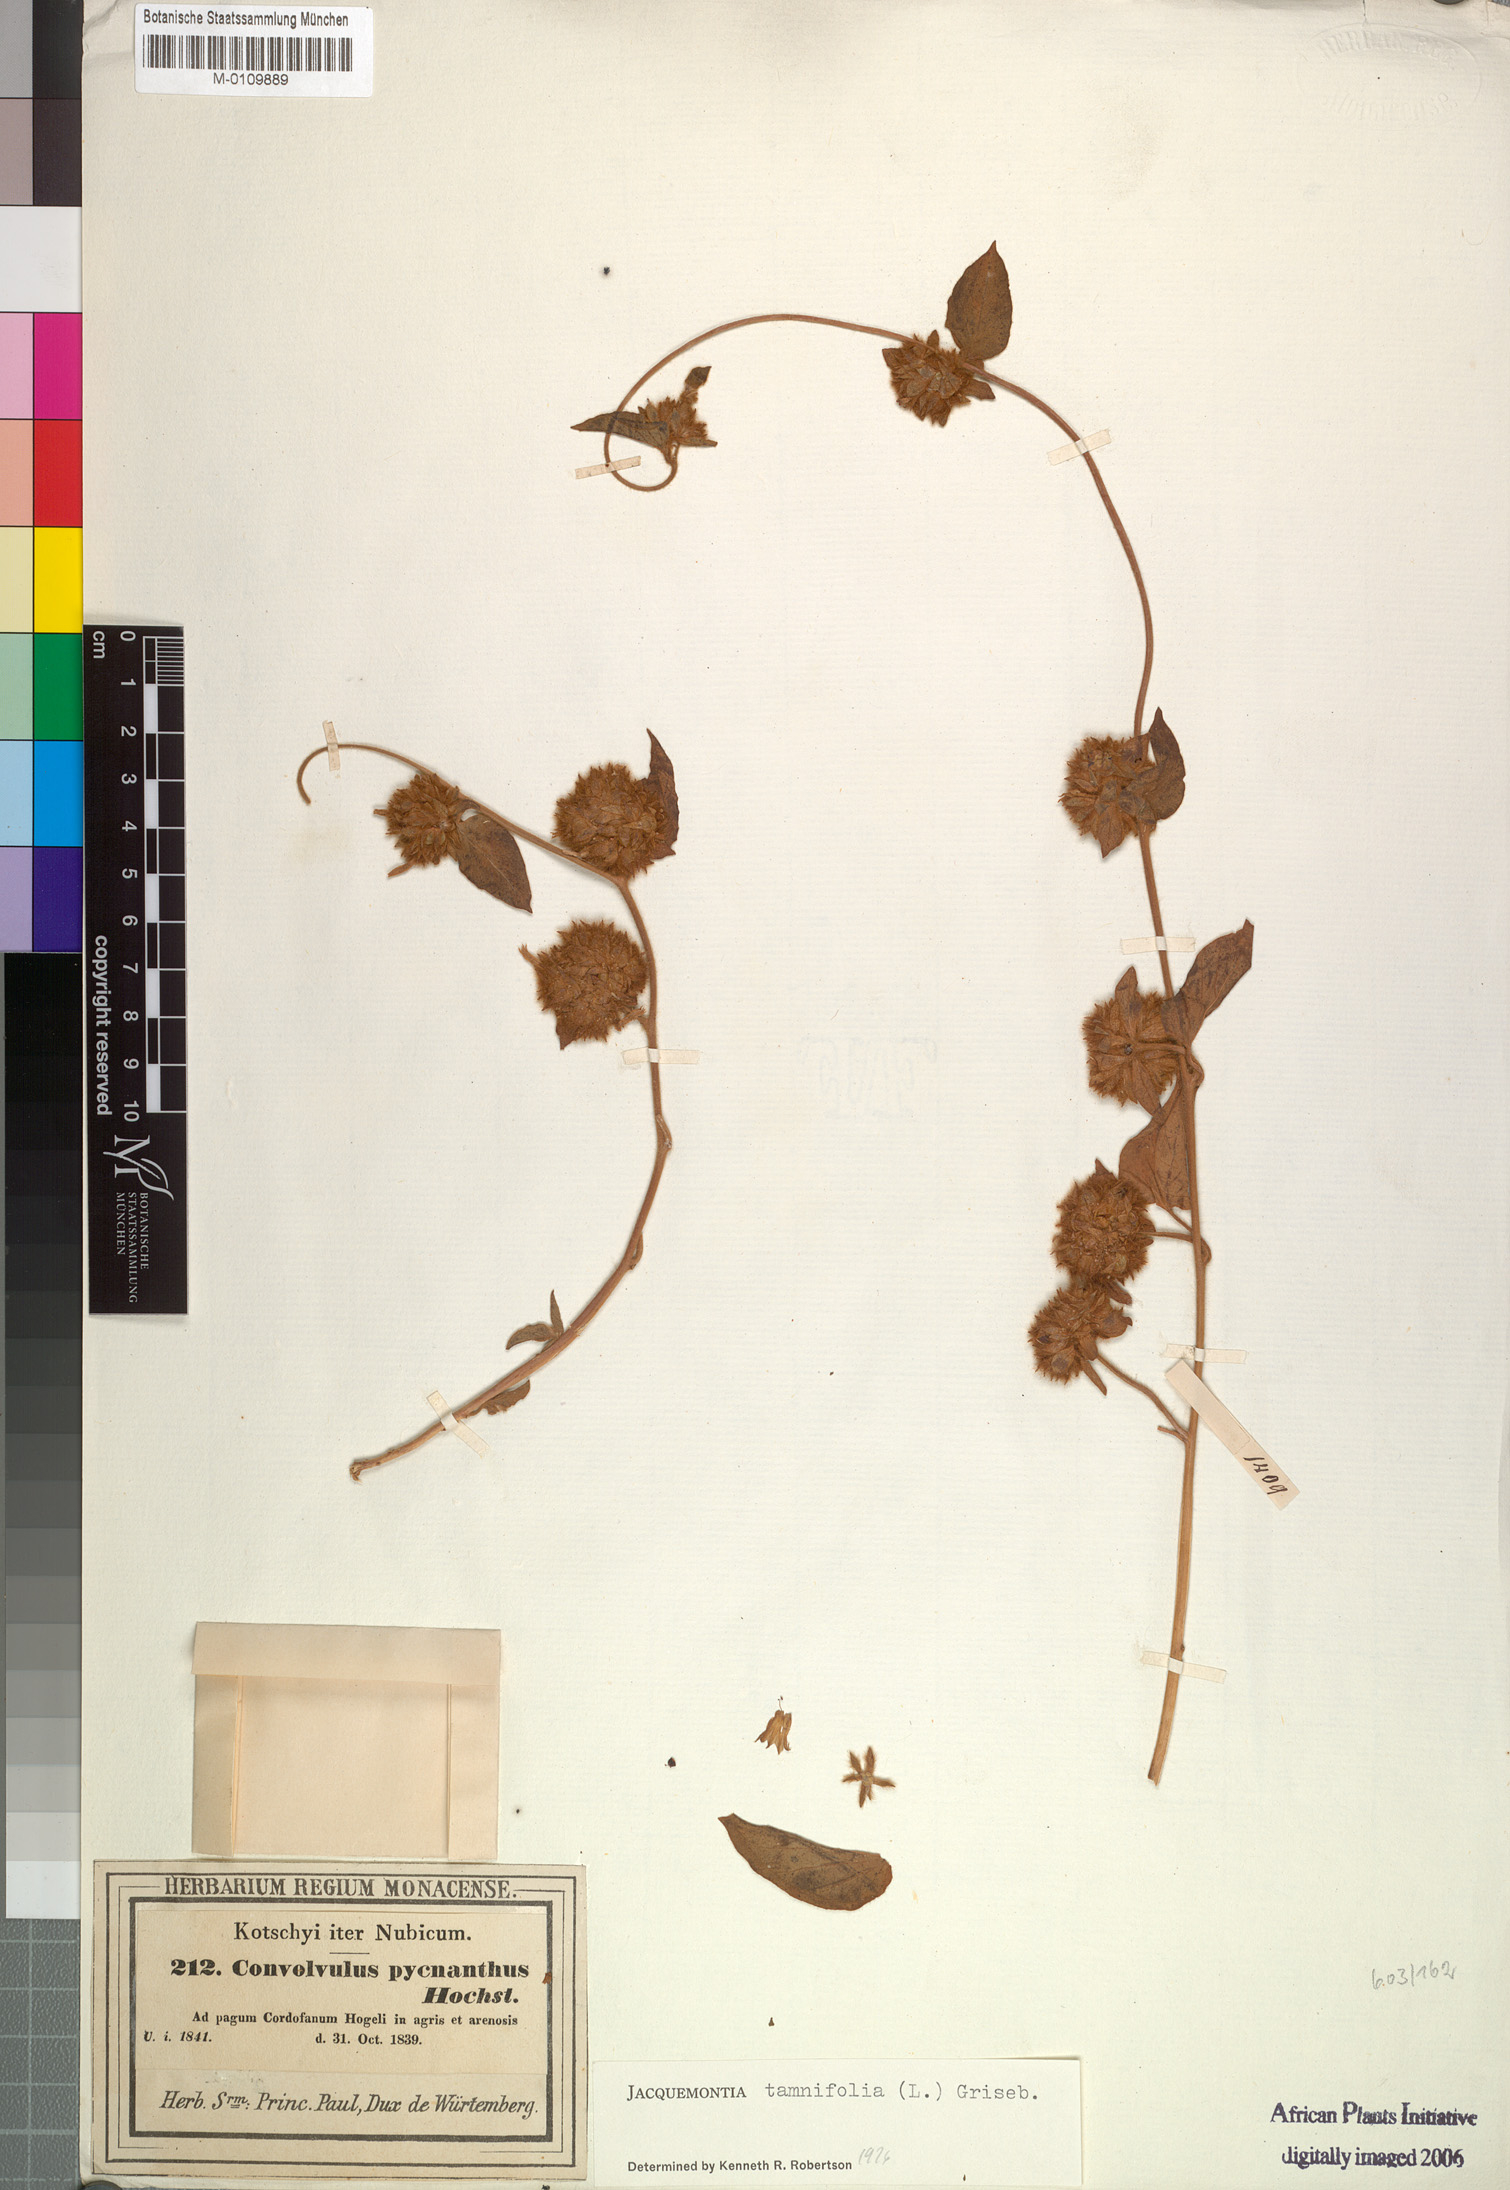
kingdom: Plantae
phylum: Tracheophyta
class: Magnoliopsida
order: Solanales
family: Convolvulaceae
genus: Jacquemontia
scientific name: Jacquemontia tamnifolia
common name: Hairy clustervine
